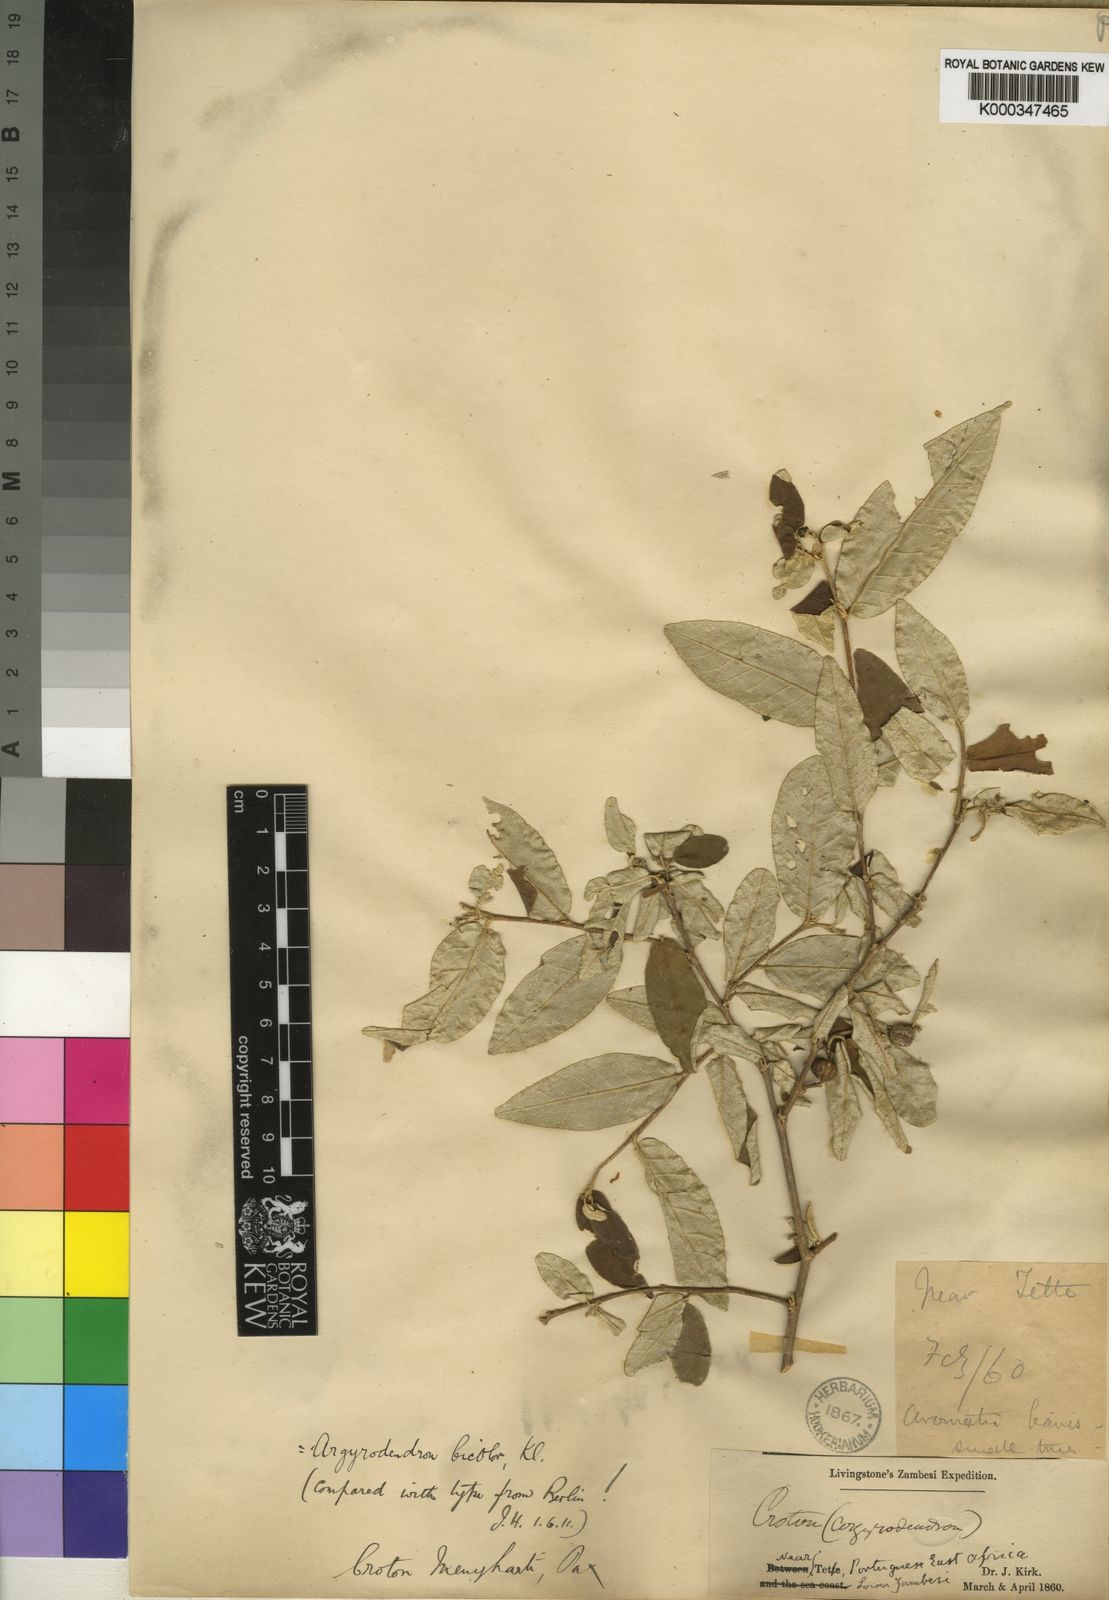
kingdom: Plantae
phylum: Tracheophyta
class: Magnoliopsida
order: Malpighiales
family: Euphorbiaceae
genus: Croton
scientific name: Croton
